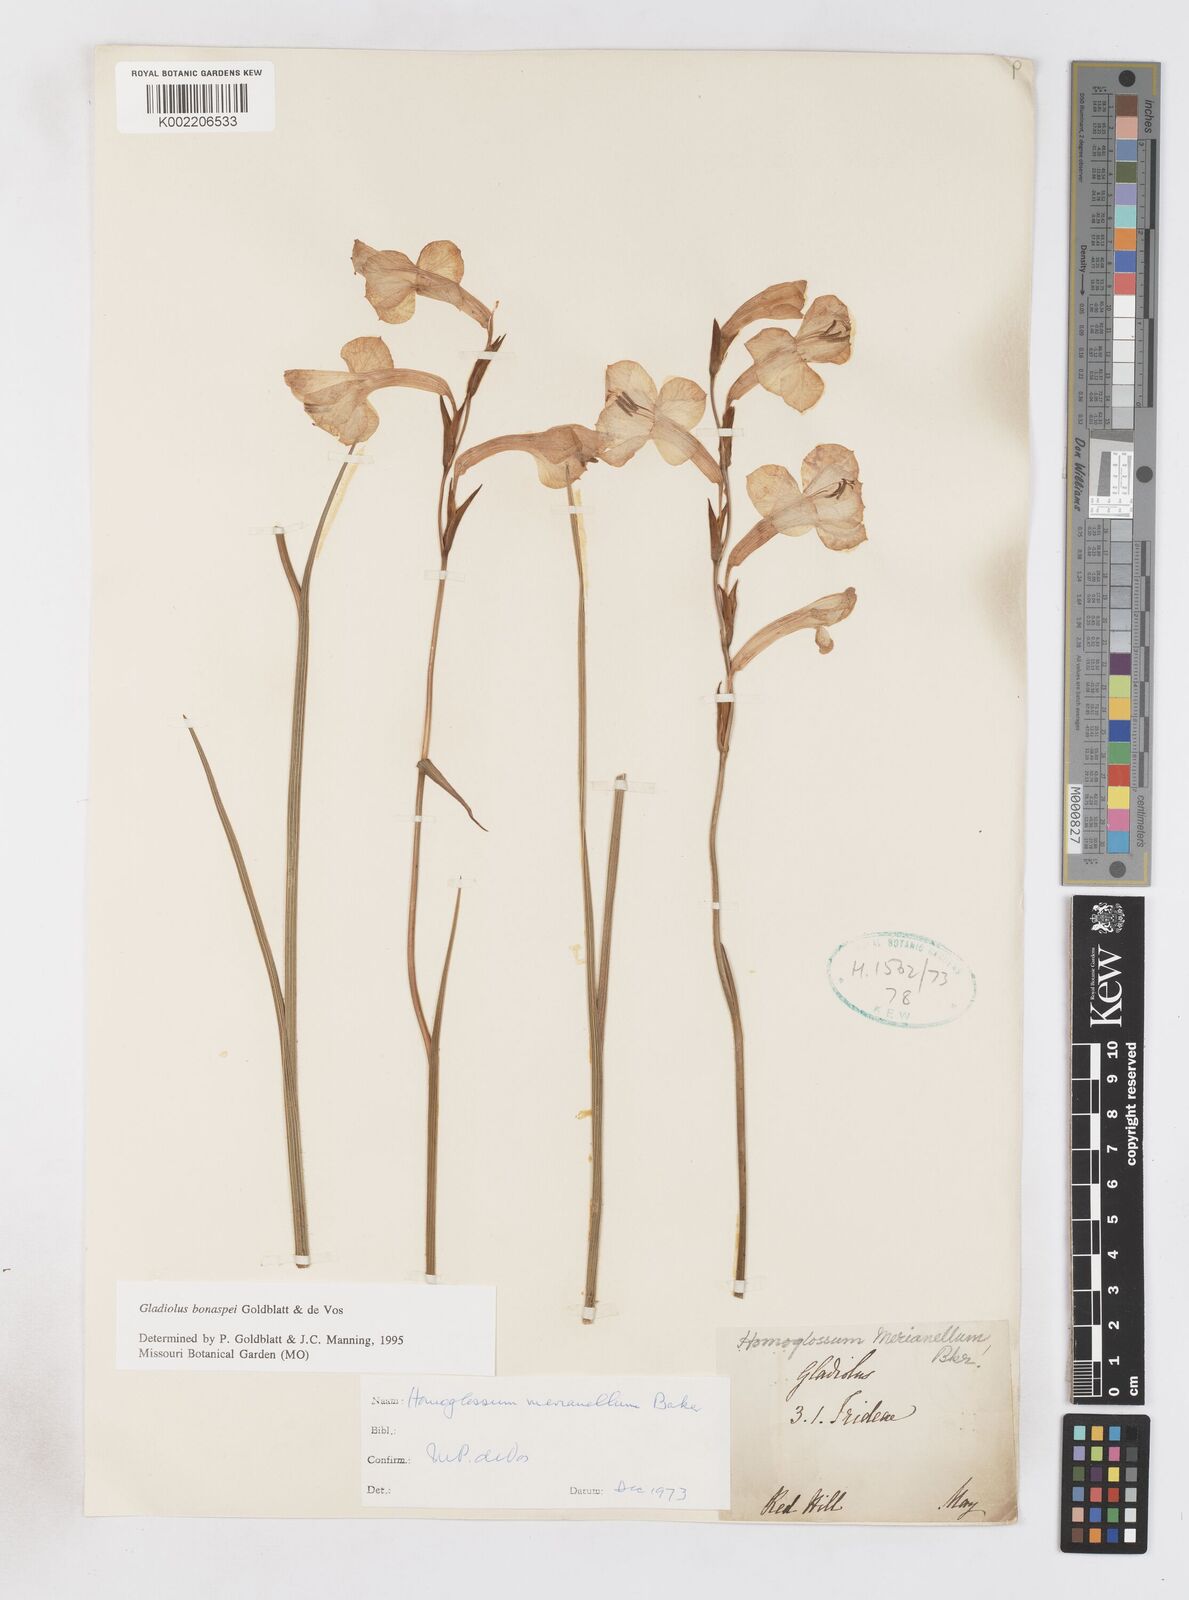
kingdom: Plantae
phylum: Tracheophyta
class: Liliopsida
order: Asparagales
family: Iridaceae
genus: Gladiolus
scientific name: Gladiolus merianellus
